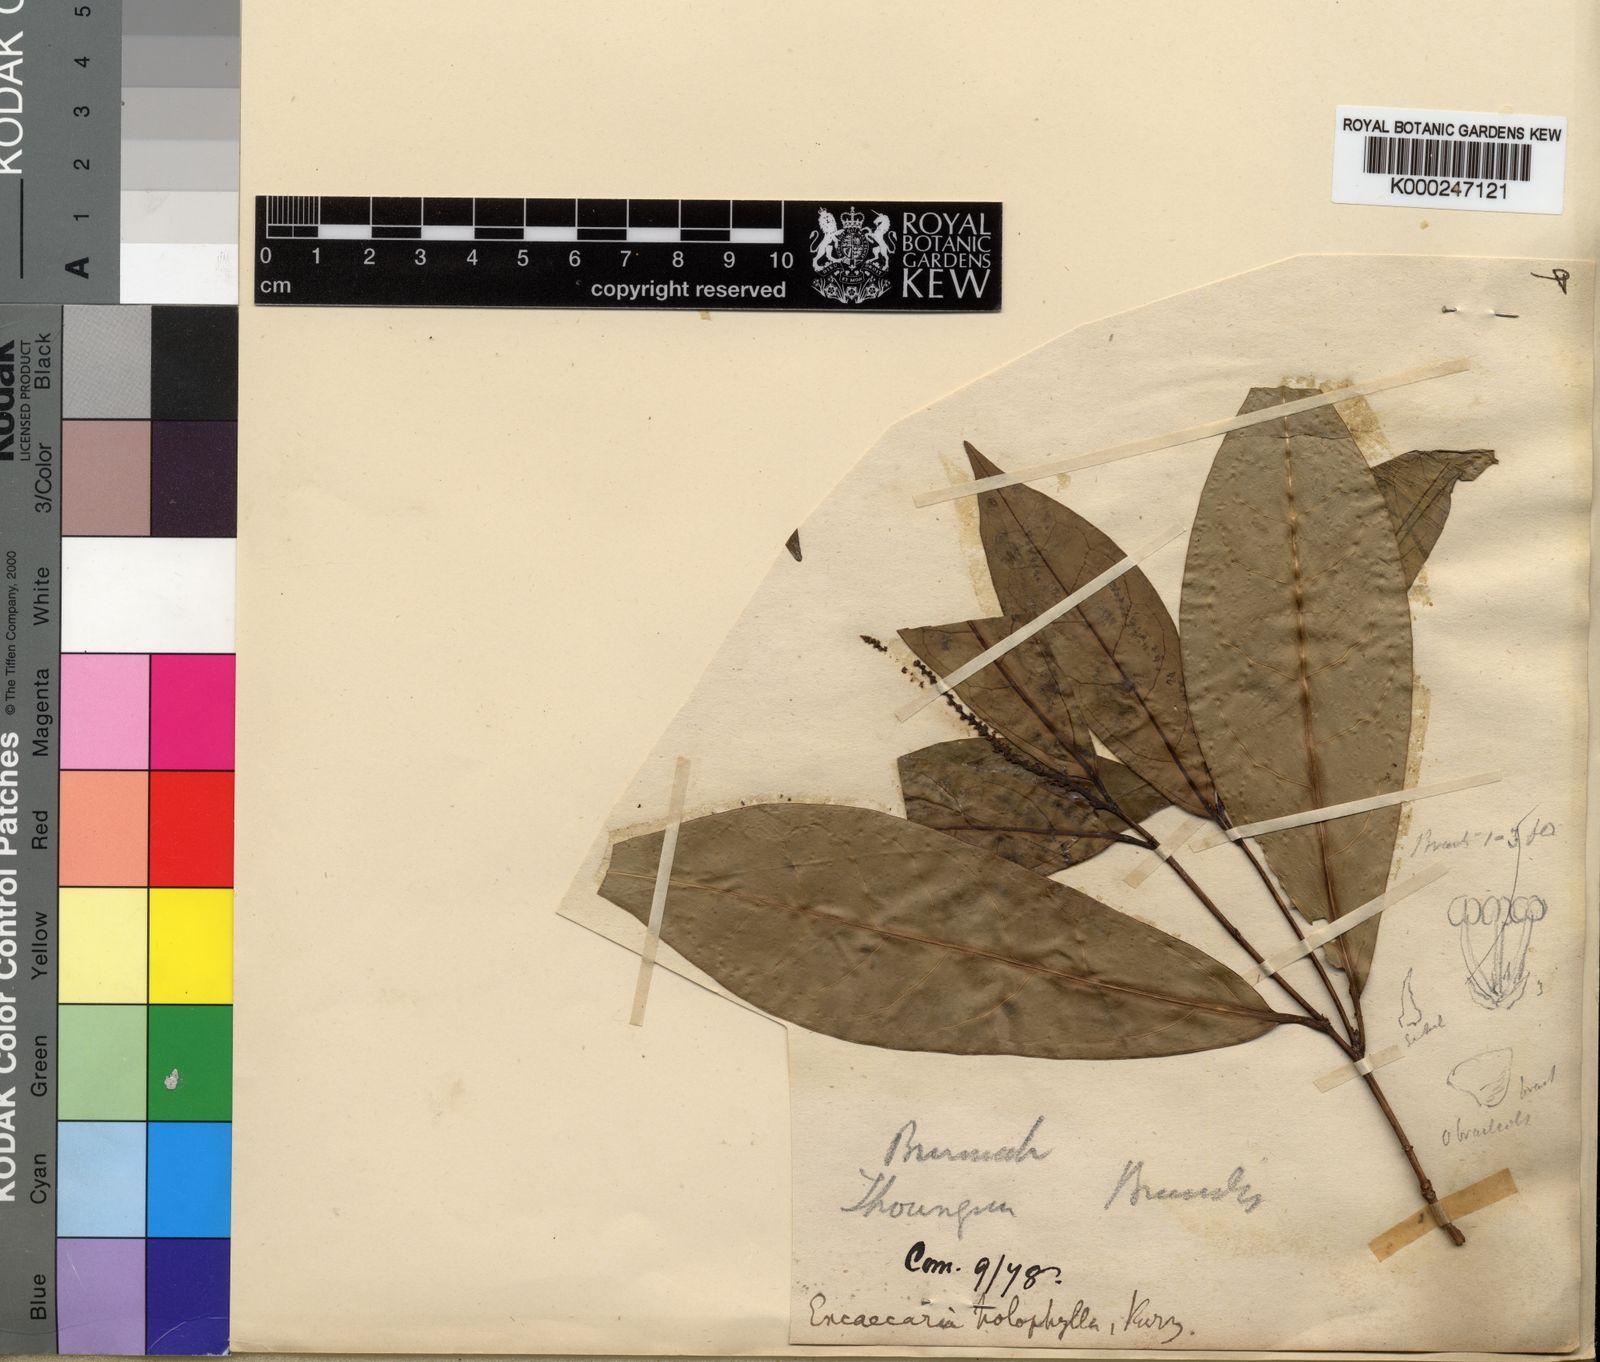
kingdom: Plantae
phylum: Tracheophyta
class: Magnoliopsida
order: Malpighiales
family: Euphorbiaceae
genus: Excoecaria
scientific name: Excoecaria holophylla
